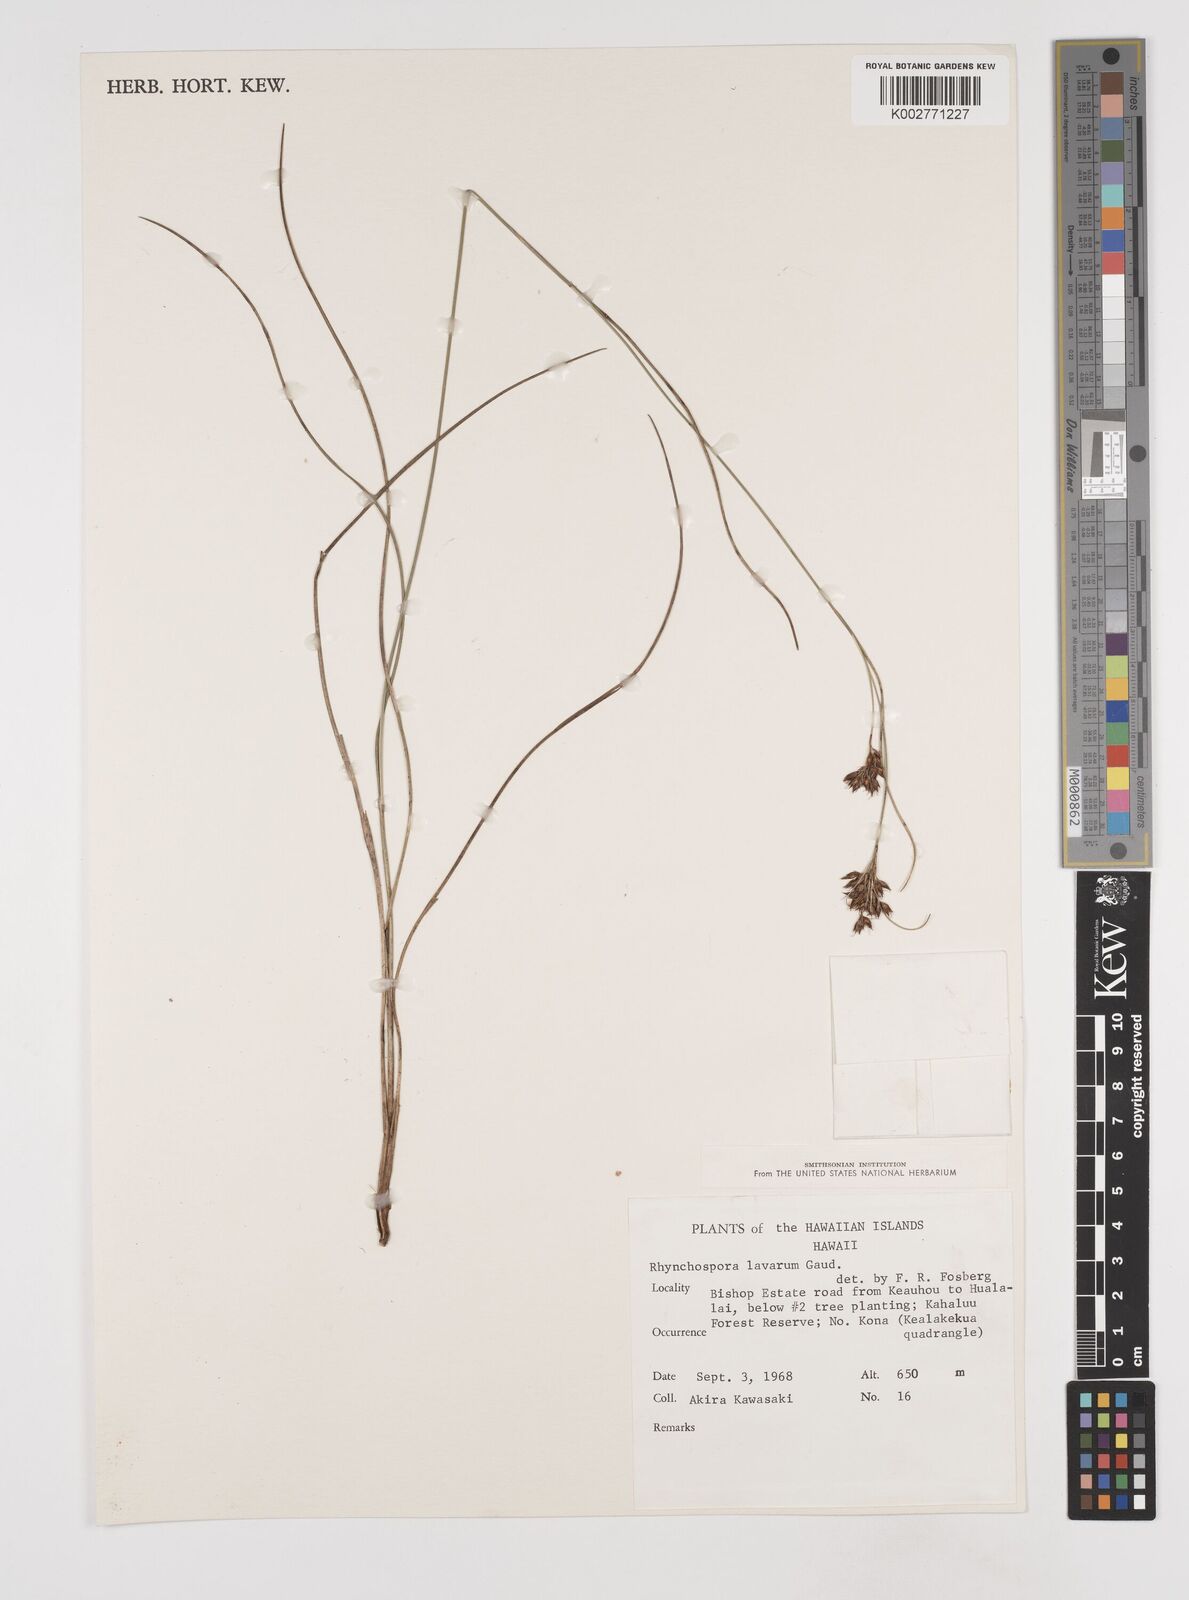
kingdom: Plantae
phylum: Tracheophyta
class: Liliopsida
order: Poales
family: Cyperaceae
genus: Rhynchospora
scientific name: Rhynchospora rugosa
